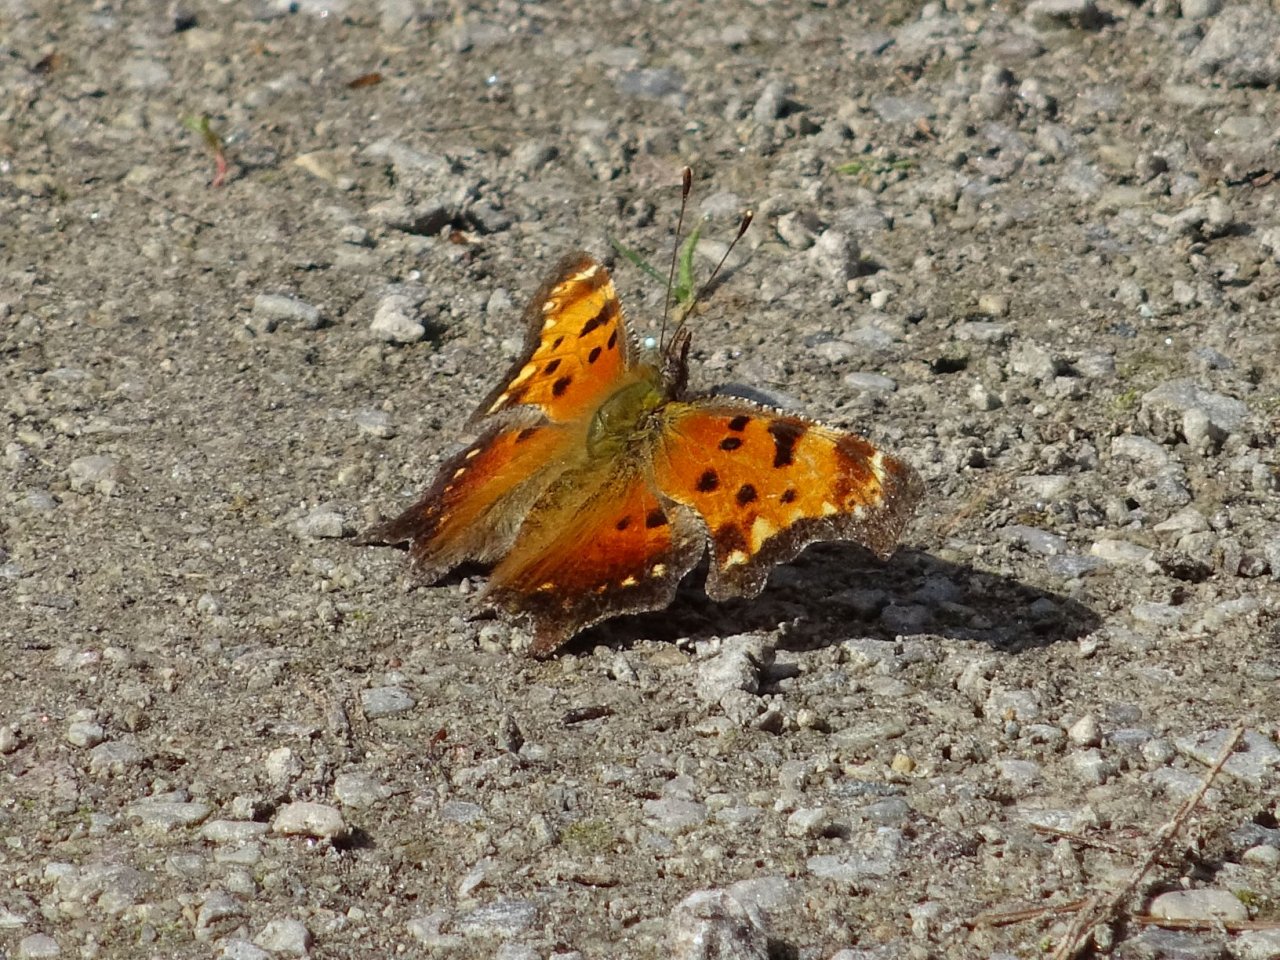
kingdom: Animalia
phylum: Arthropoda
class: Insecta
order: Lepidoptera
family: Nymphalidae
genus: Polygonia
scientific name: Polygonia progne
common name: Gray Comma
